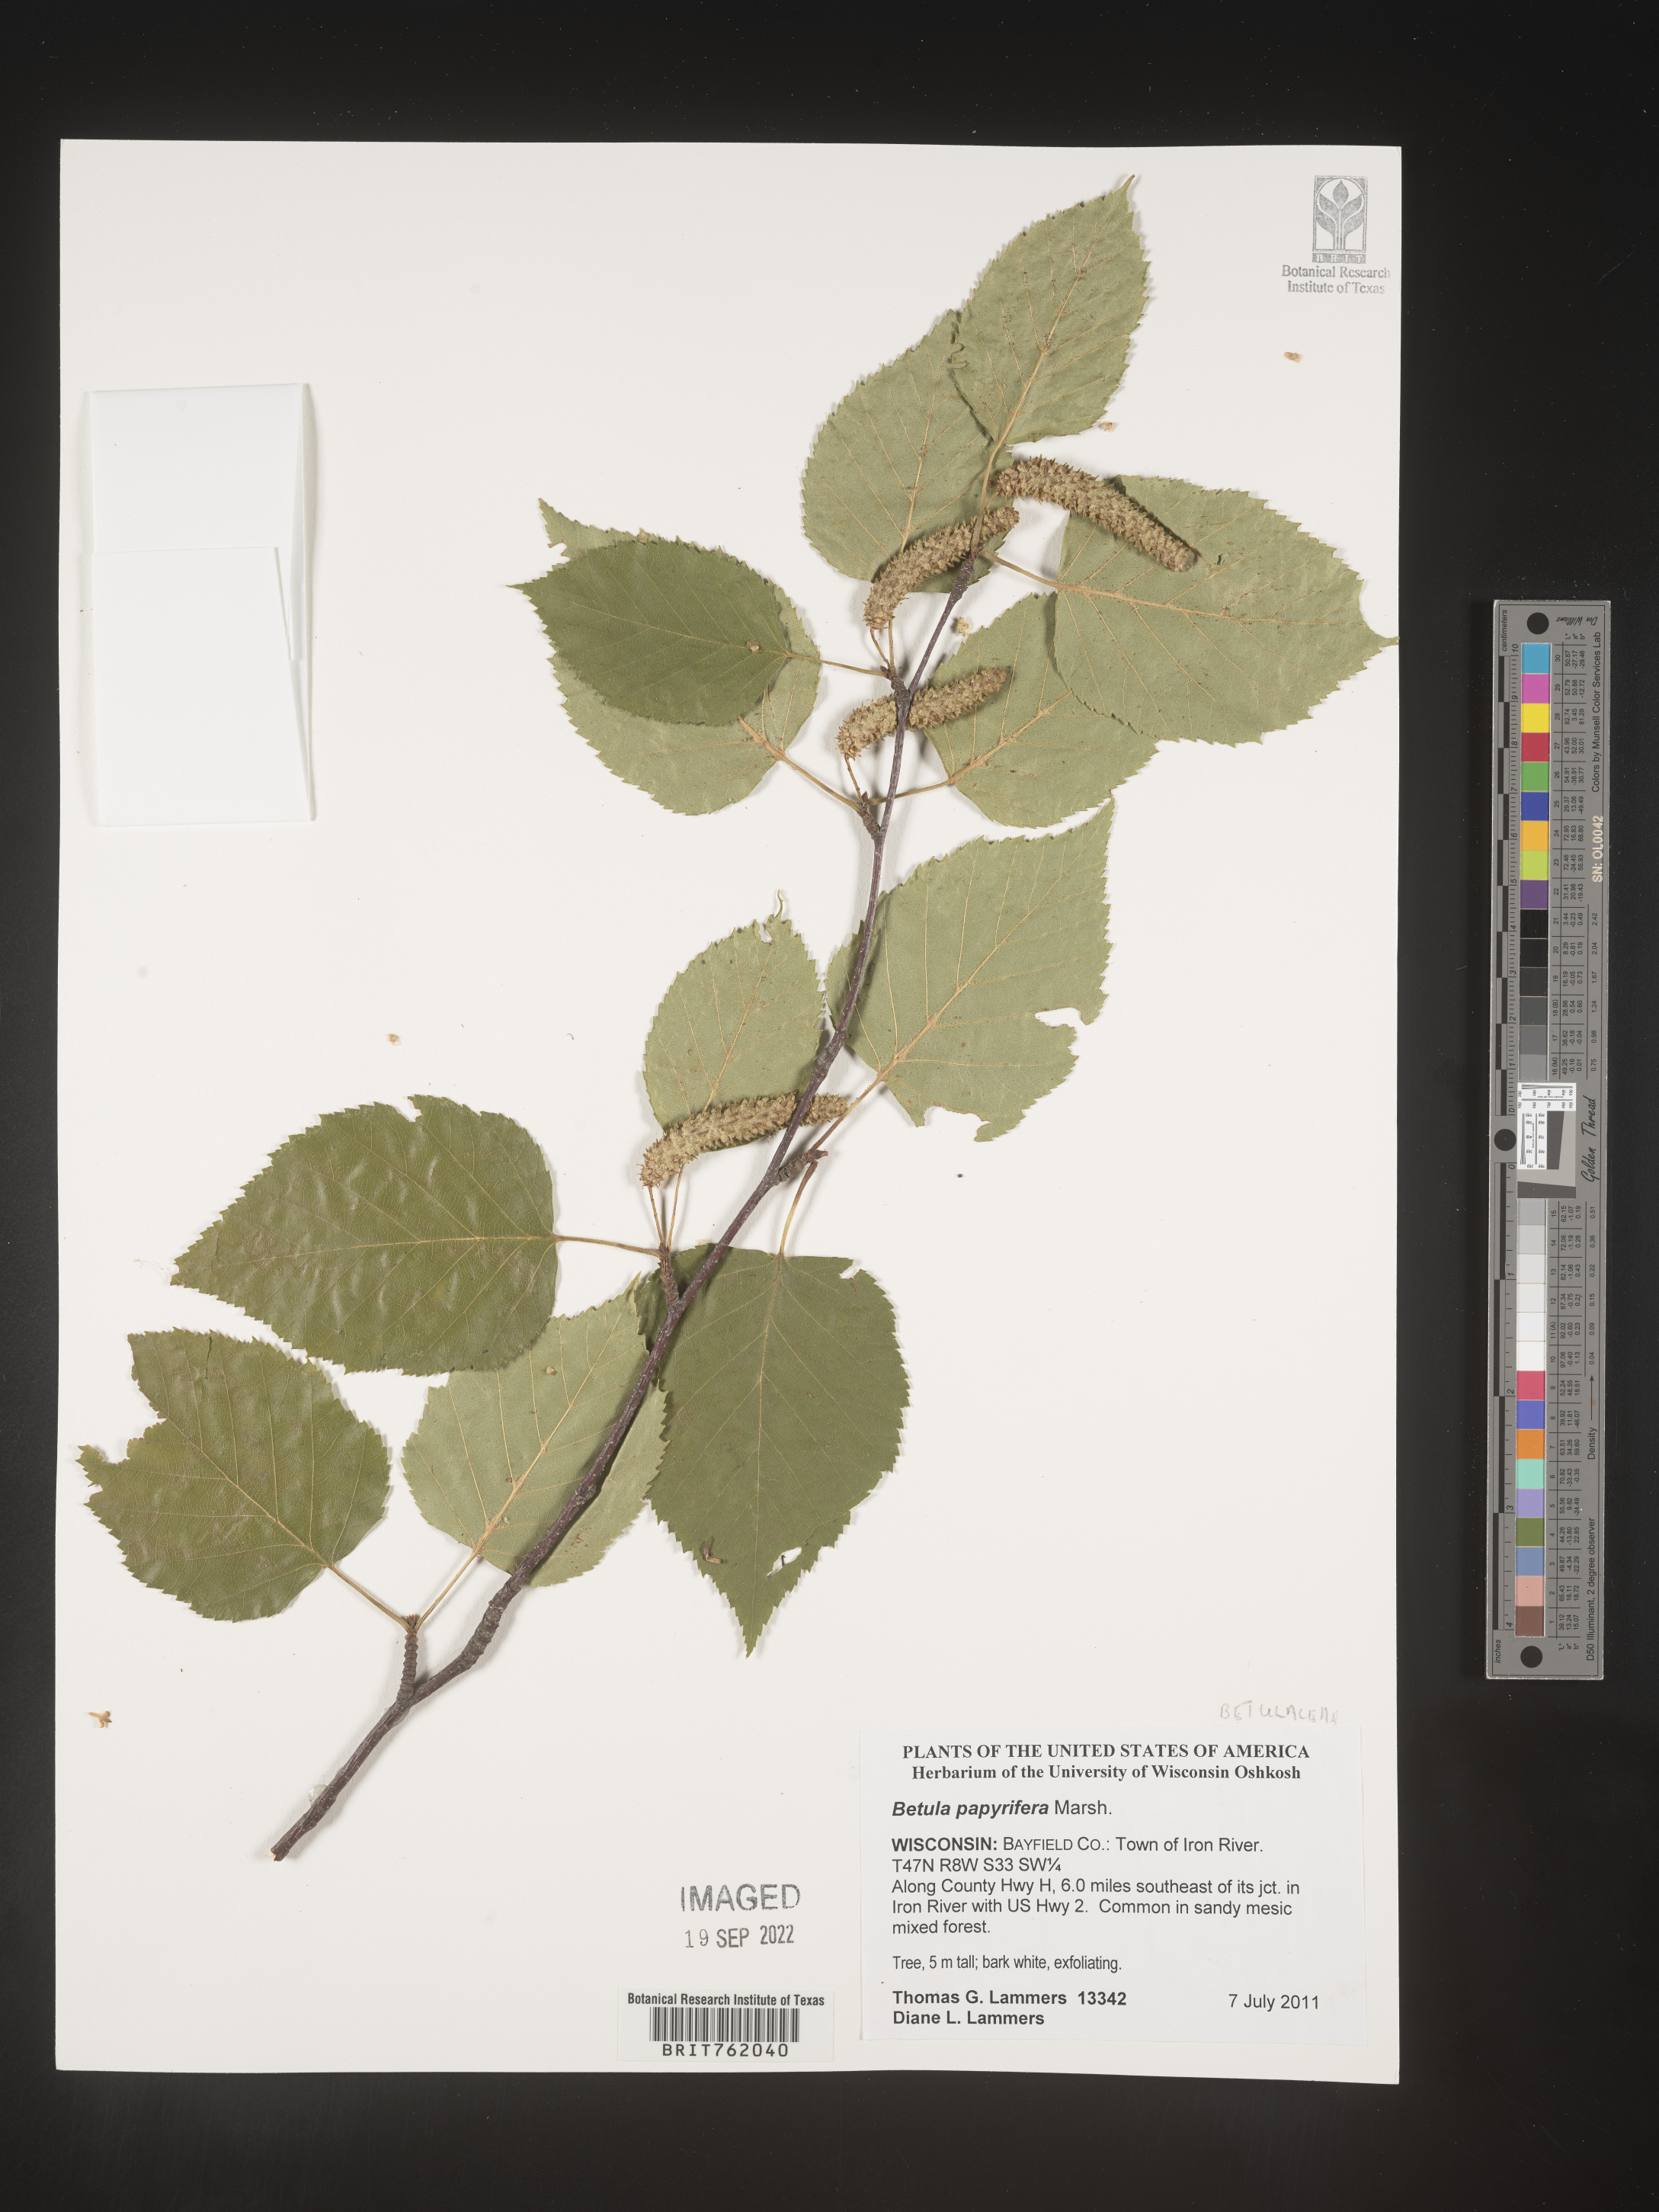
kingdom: Plantae
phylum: Tracheophyta
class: Magnoliopsida
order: Fagales
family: Betulaceae
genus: Betula
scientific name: Betula papyrifera
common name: Paper birch
